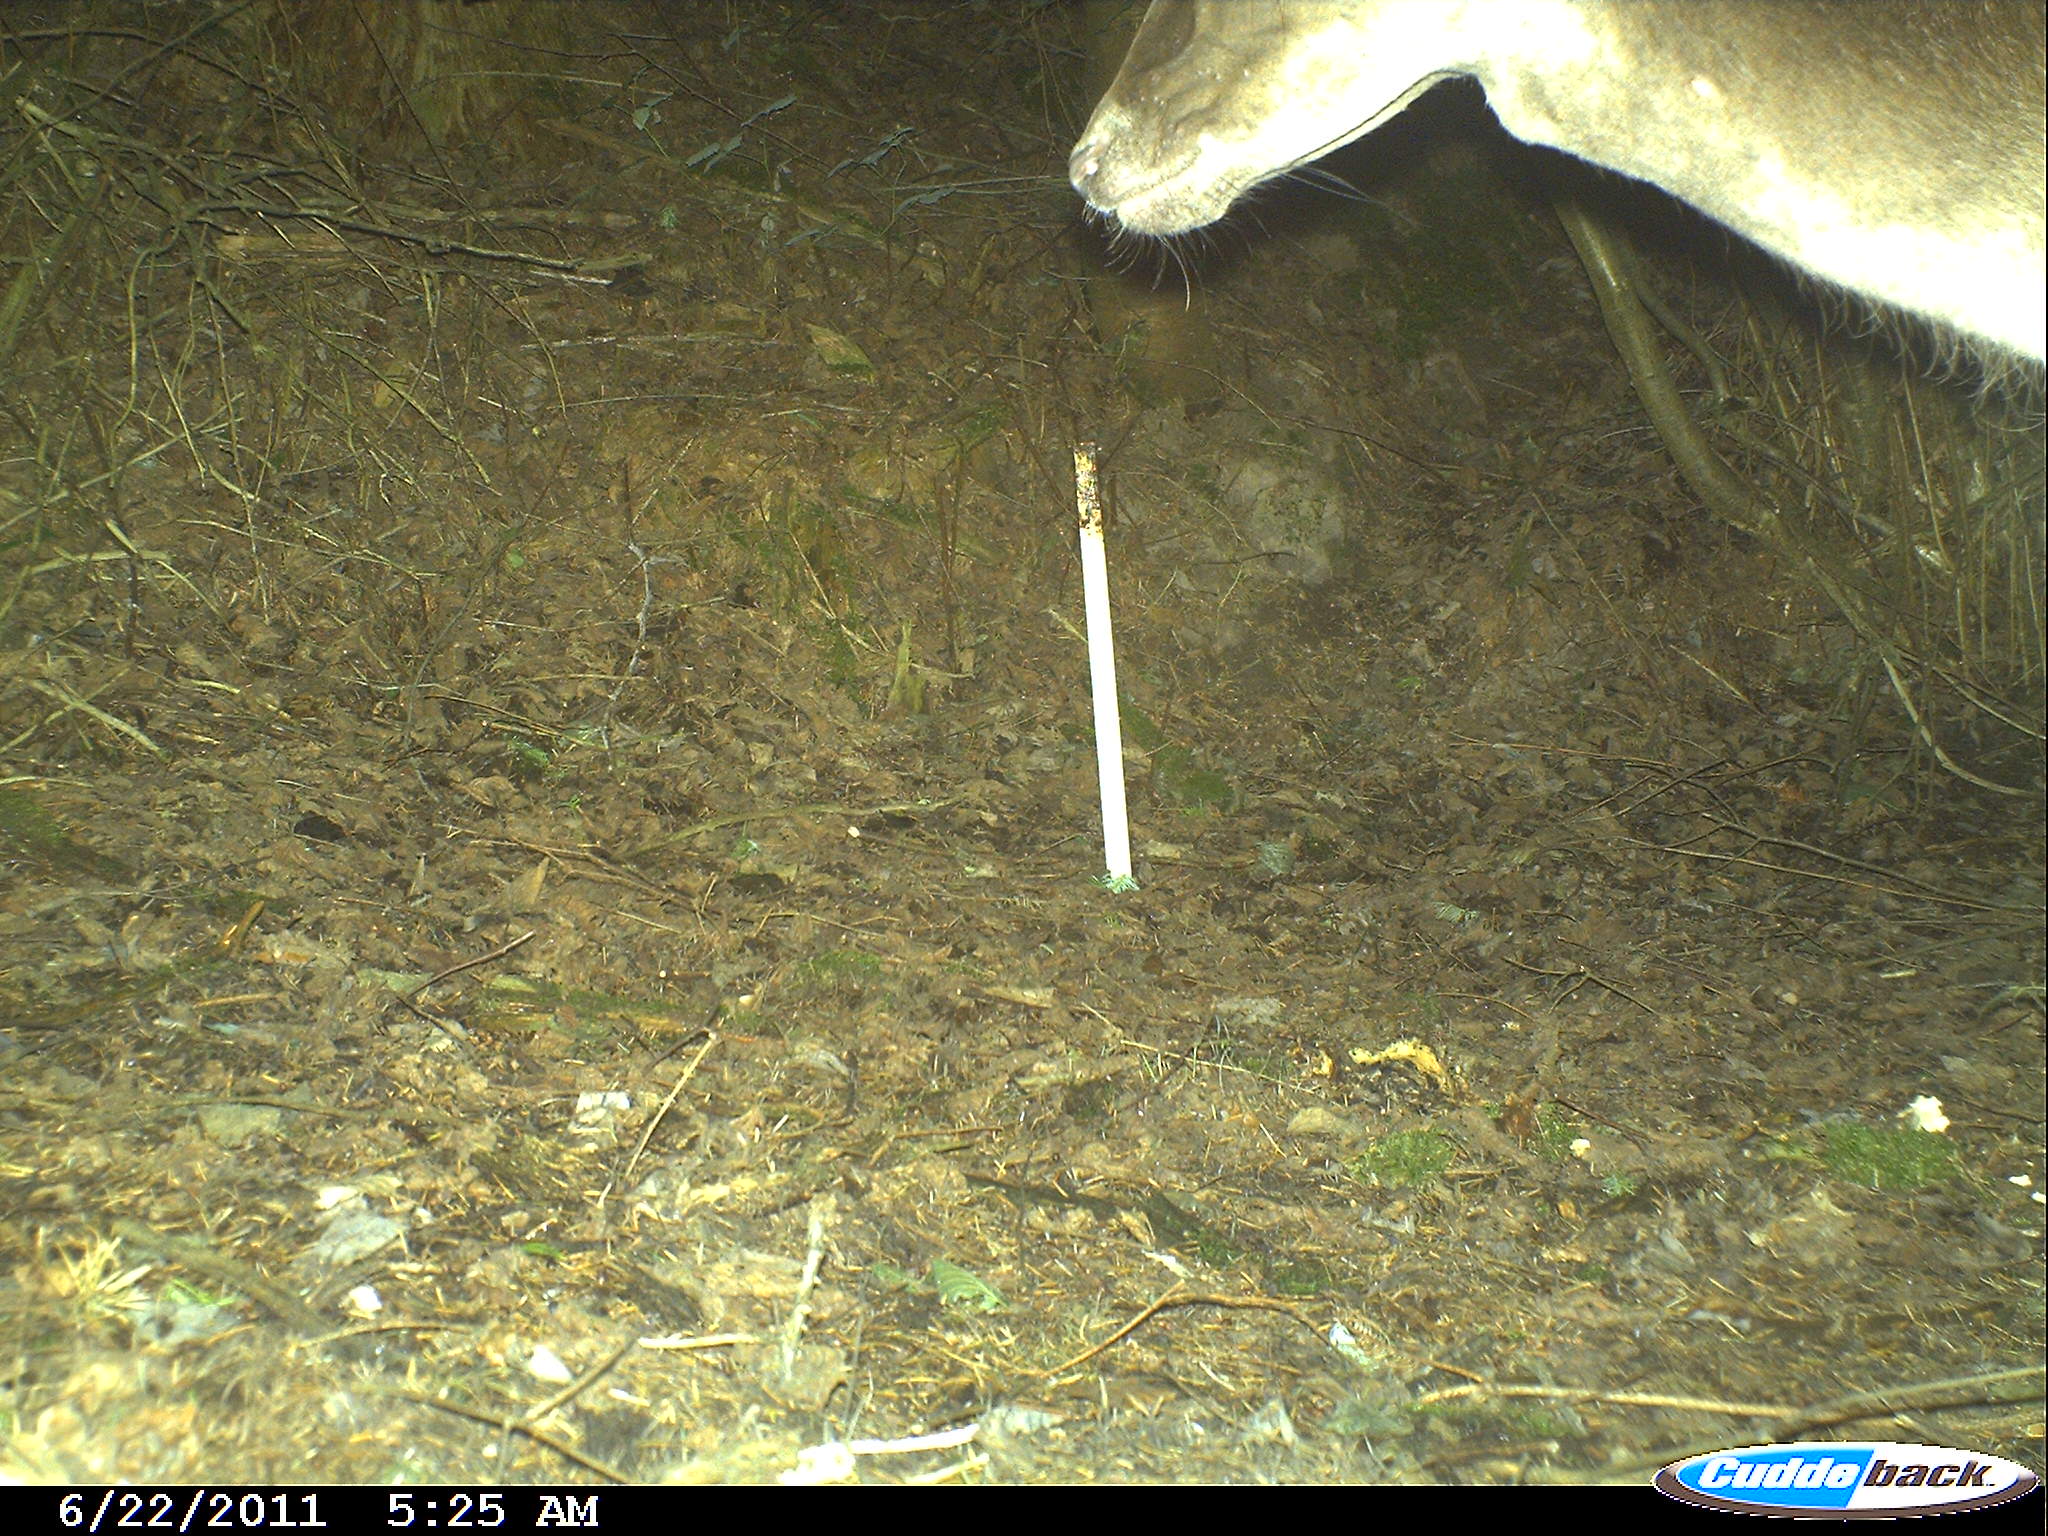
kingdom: Animalia
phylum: Chordata
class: Mammalia
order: Artiodactyla
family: Cervidae
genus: Cervus
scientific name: Cervus
